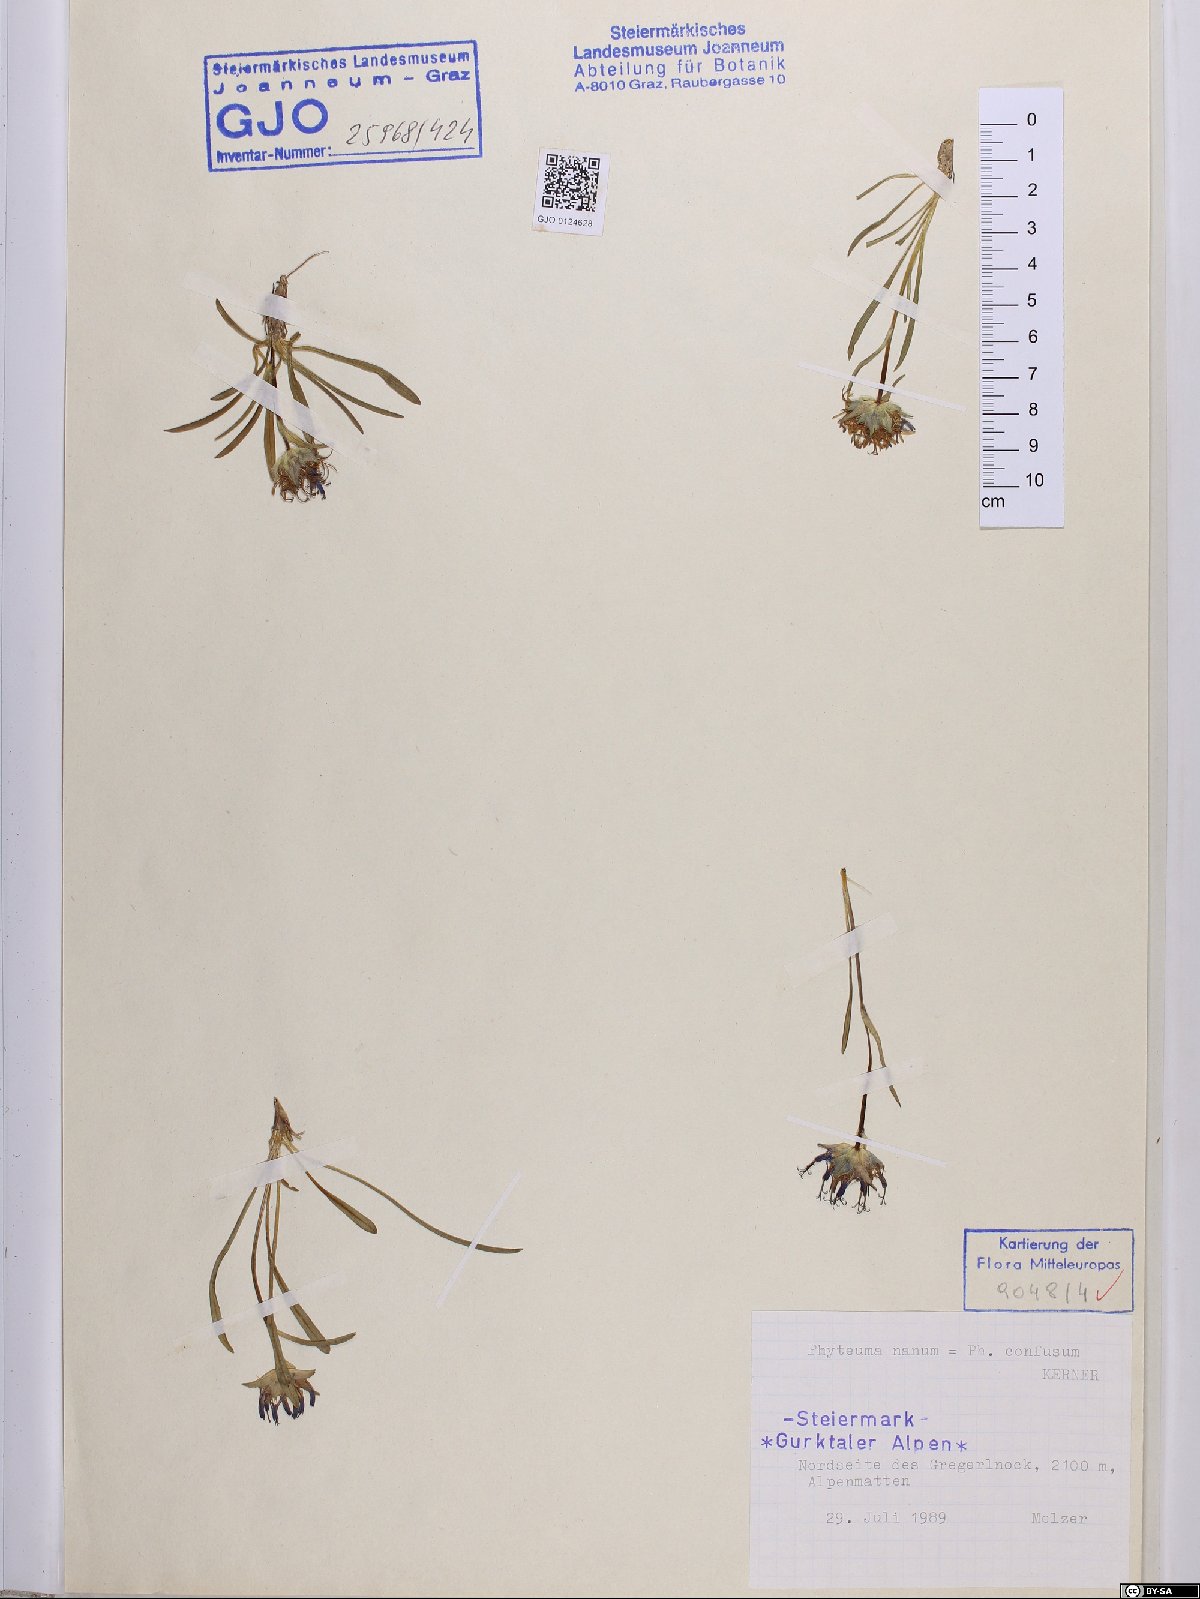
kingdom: Plantae
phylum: Tracheophyta
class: Magnoliopsida
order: Asterales
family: Campanulaceae
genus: Phyteuma
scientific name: Phyteuma confusum
